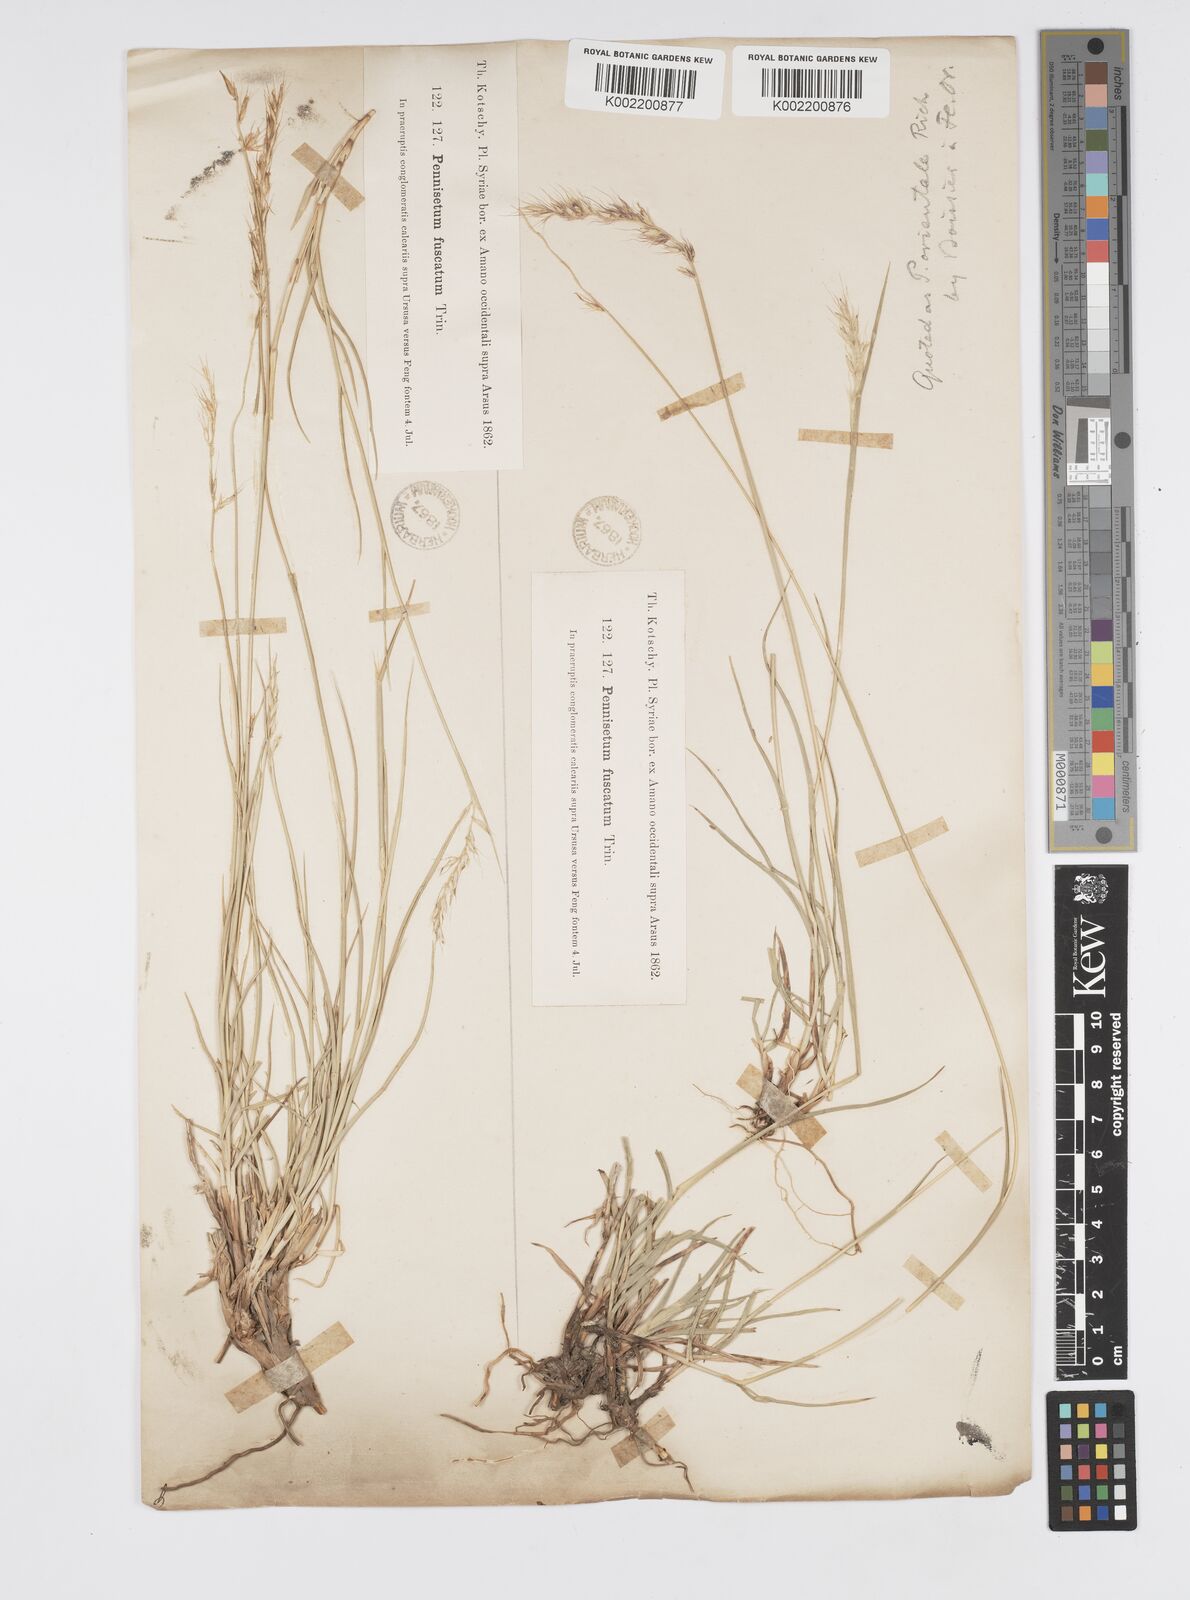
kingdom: Plantae
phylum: Tracheophyta
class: Liliopsida
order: Poales
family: Poaceae
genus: Cenchrus
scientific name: Cenchrus orientalis
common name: Oriental fountain grass
